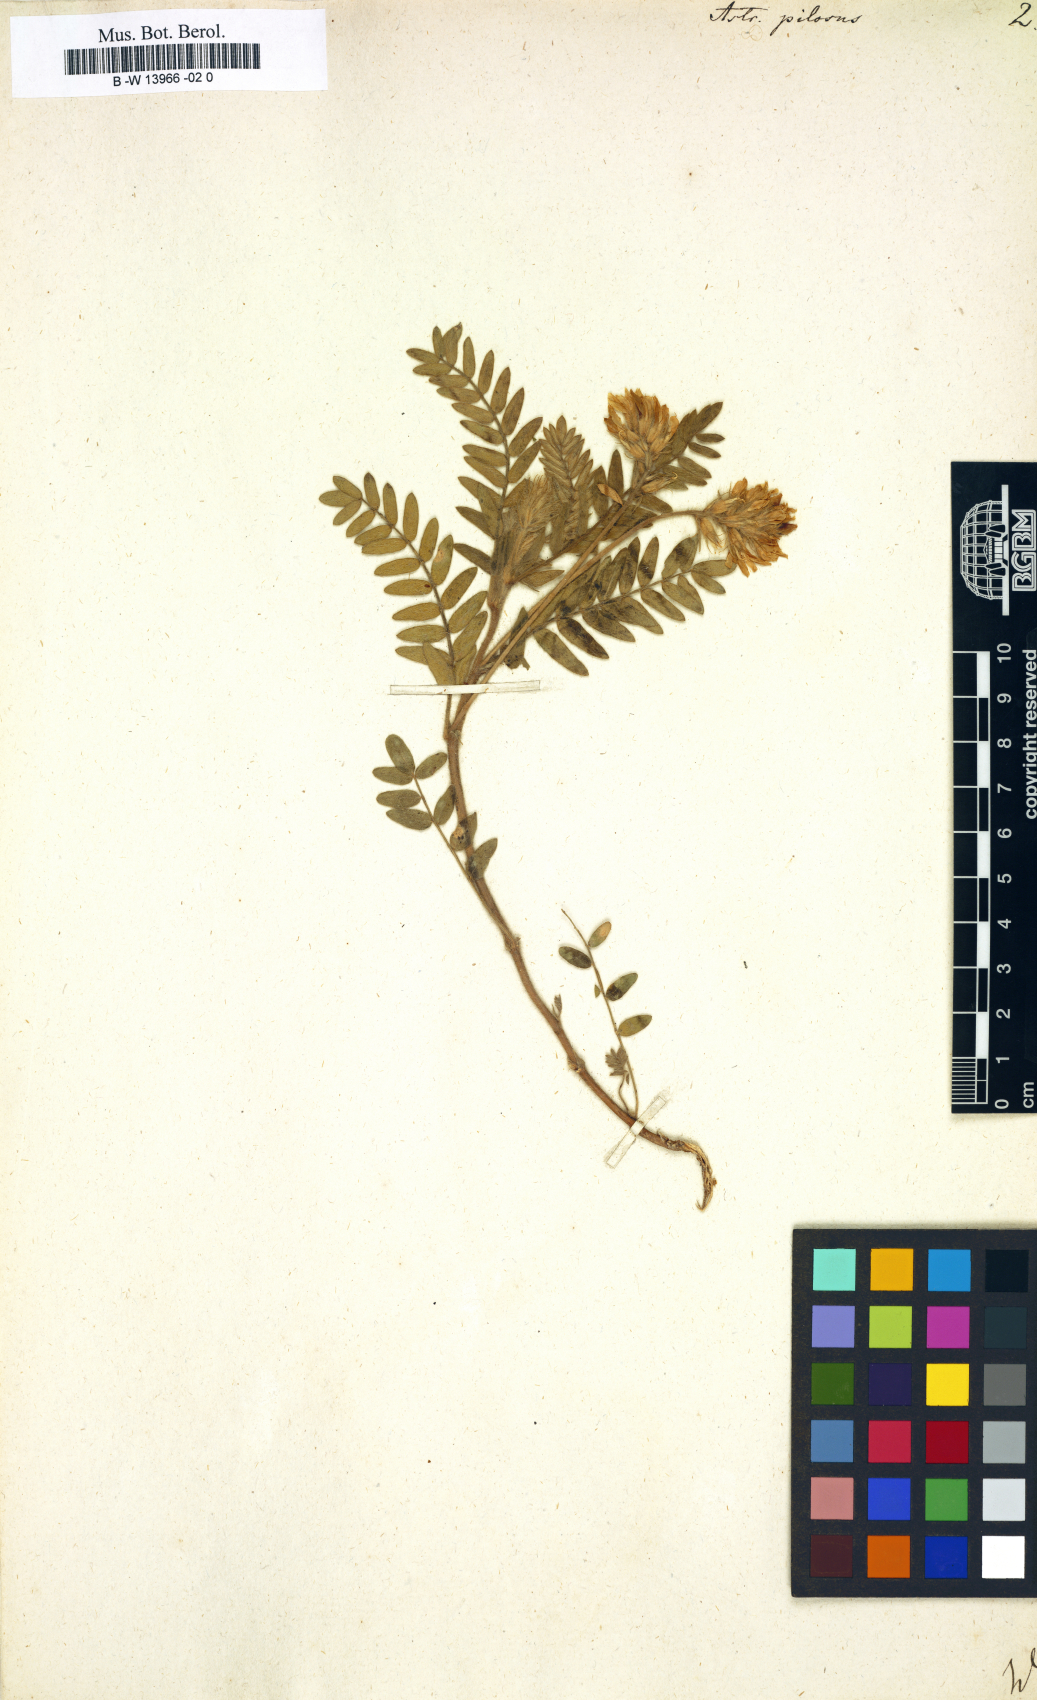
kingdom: Plantae
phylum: Tracheophyta
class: Magnoliopsida
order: Fabales
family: Fabaceae
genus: Oxytropis
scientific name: Oxytropis pilosa
